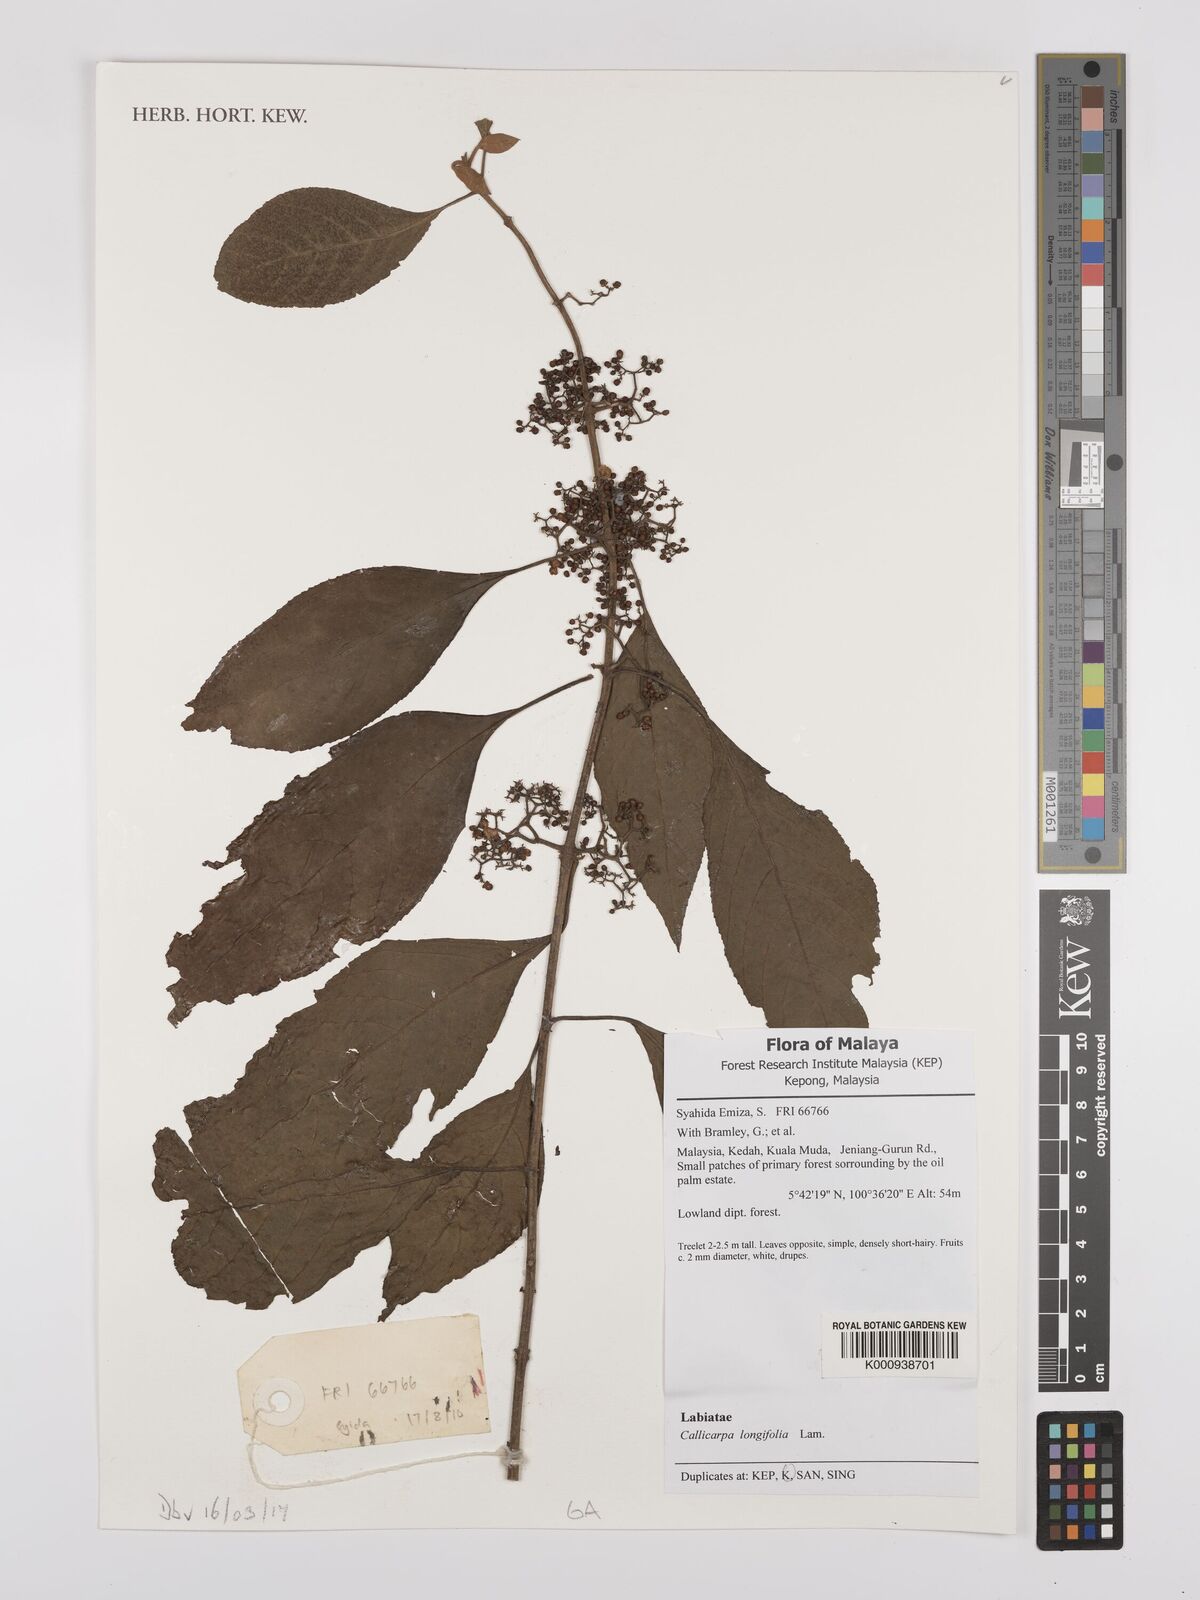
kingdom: Plantae
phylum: Tracheophyta
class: Magnoliopsida
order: Lamiales
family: Lamiaceae
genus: Callicarpa
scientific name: Callicarpa longifolia
